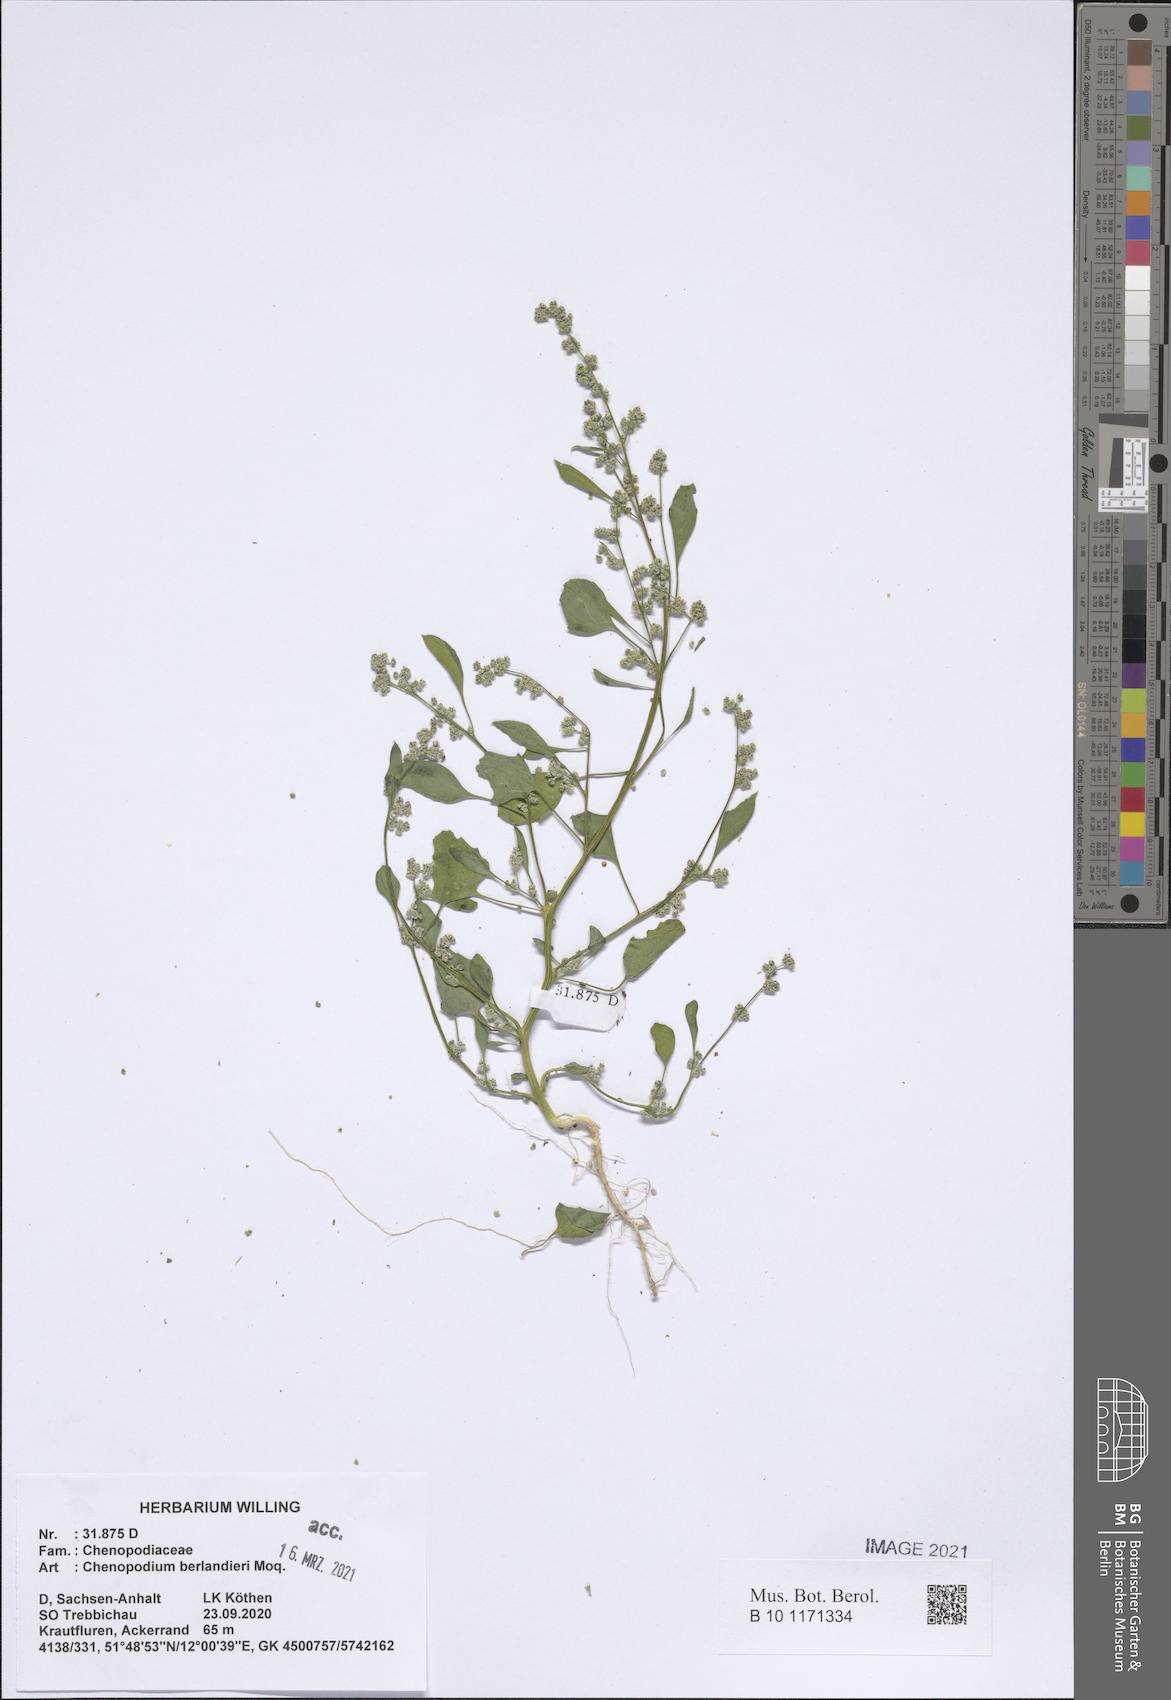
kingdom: Plantae
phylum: Tracheophyta
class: Magnoliopsida
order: Caryophyllales
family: Amaranthaceae
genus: Chenopodium
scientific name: Chenopodium berlandieri
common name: Pit-seed goosefoot
